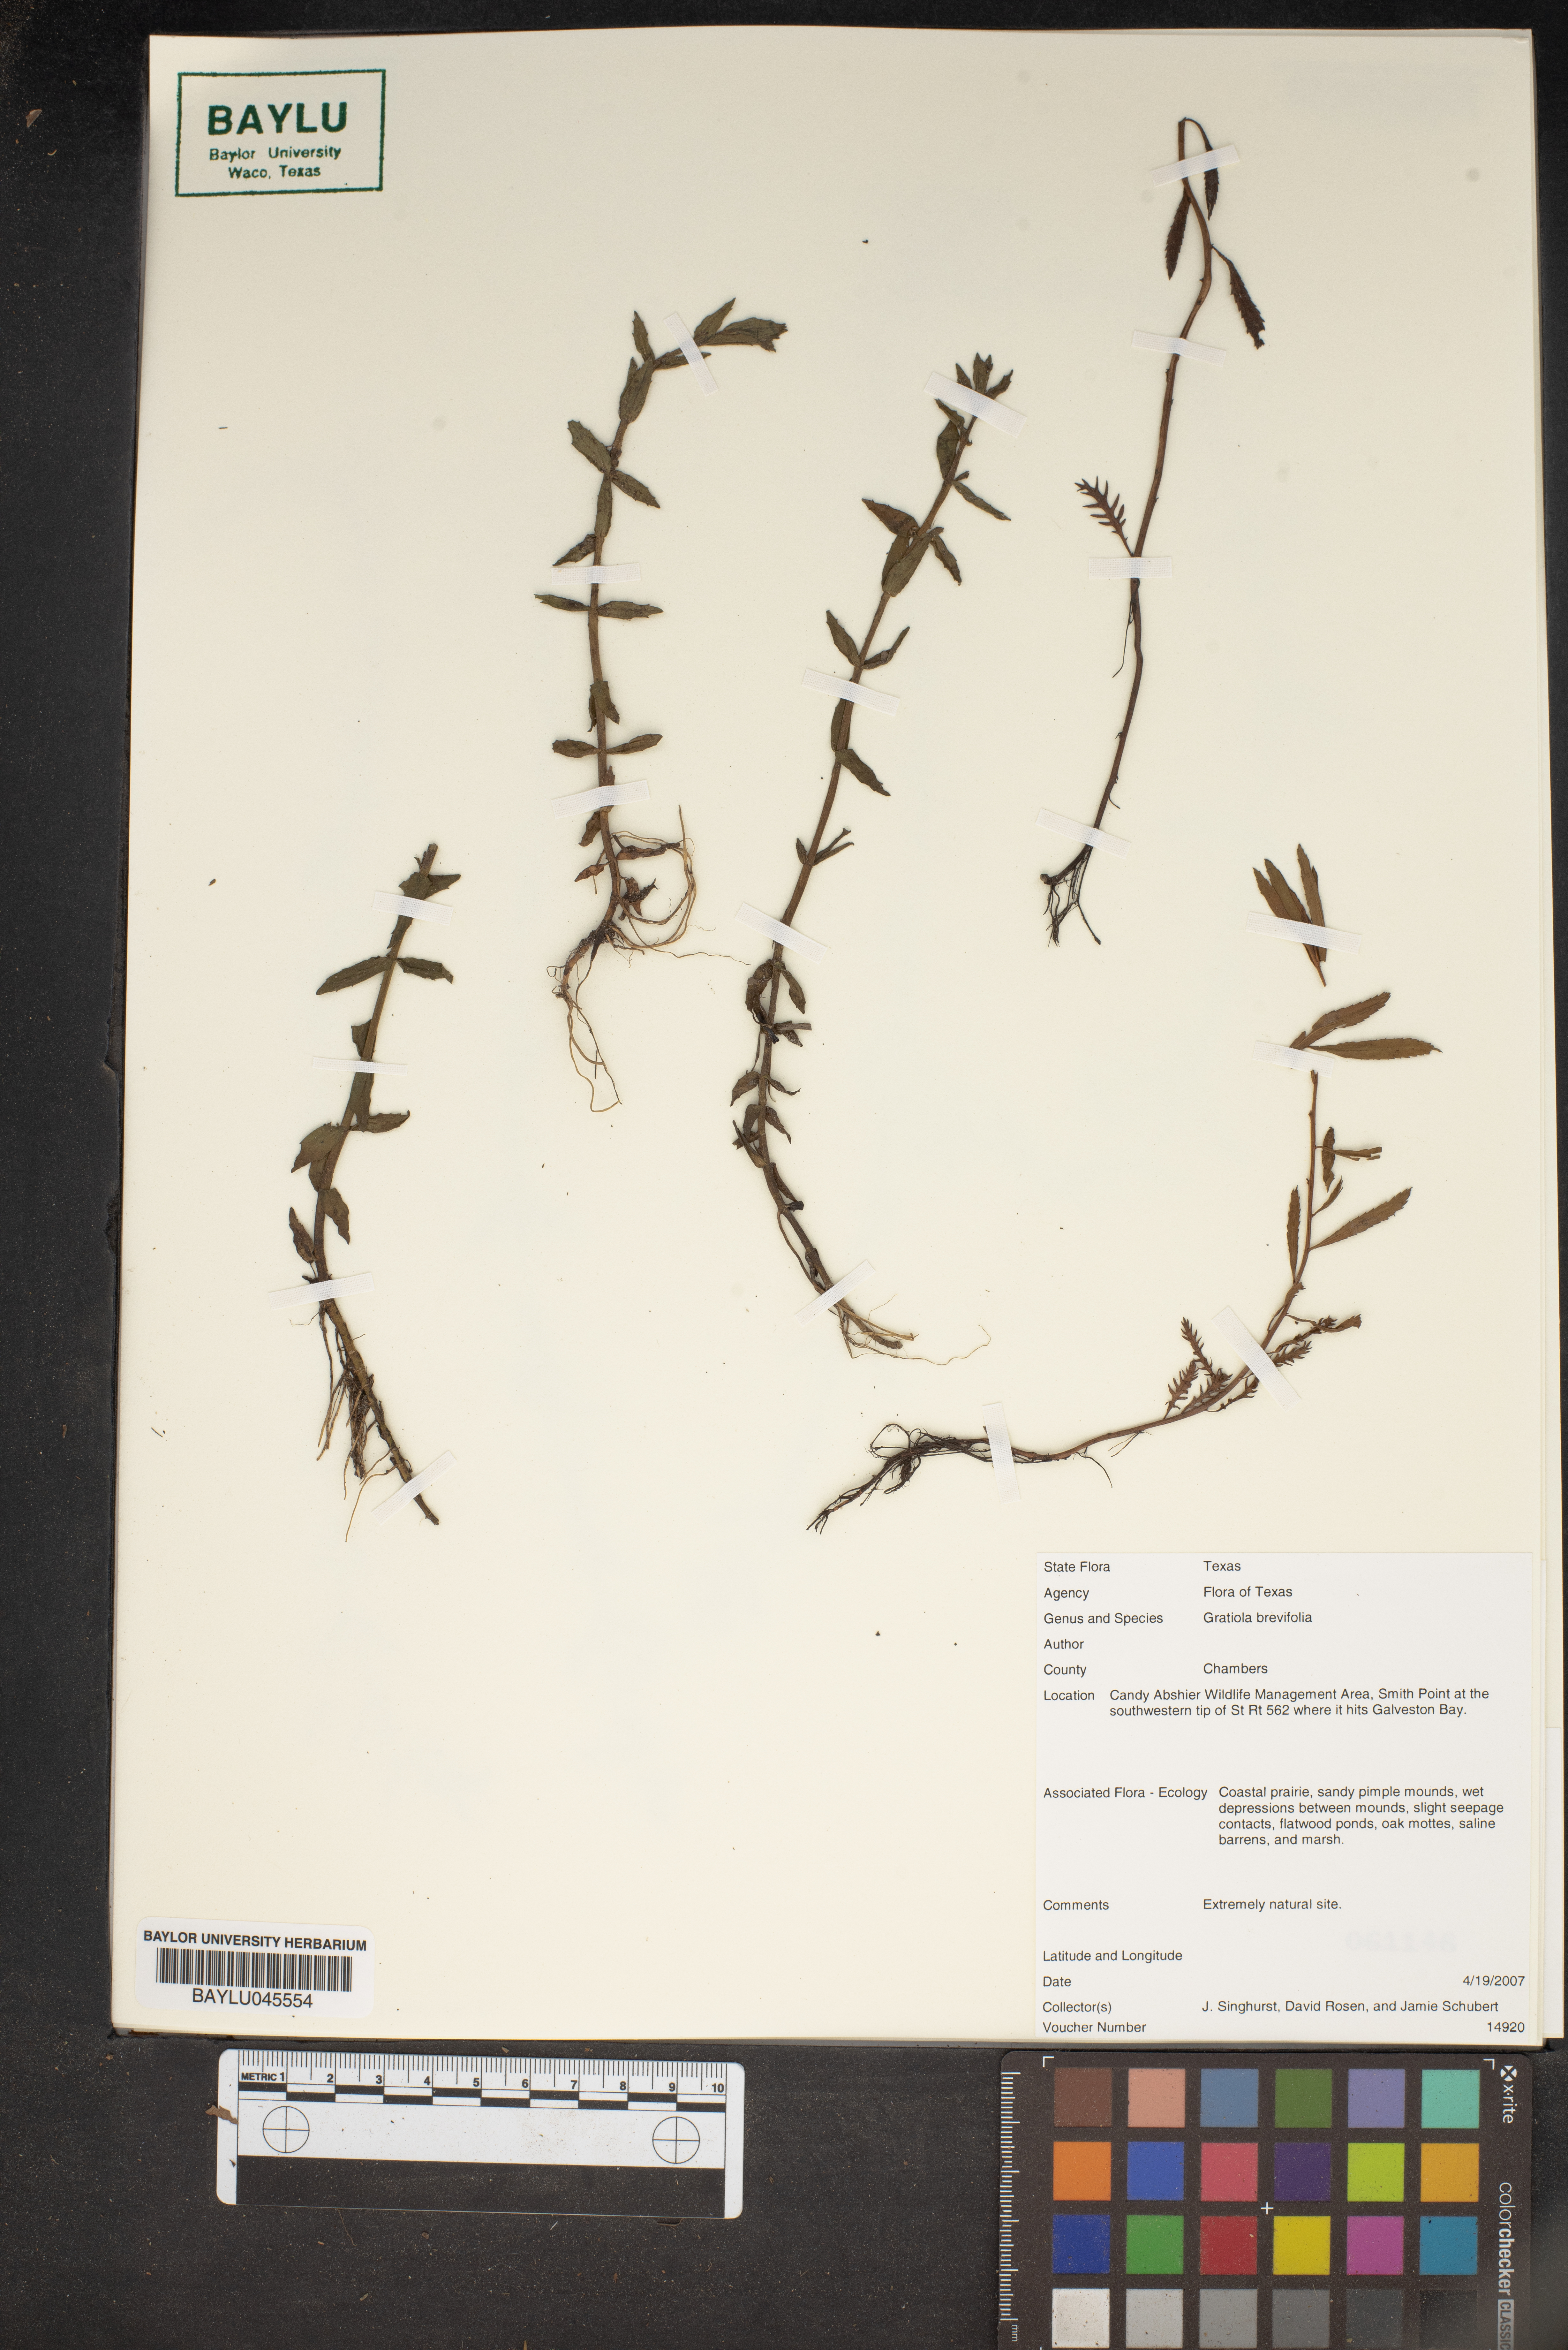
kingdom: Plantae
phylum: Tracheophyta
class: Magnoliopsida
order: Lamiales
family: Plantaginaceae
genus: Gratiola
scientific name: Gratiola brevifolia
